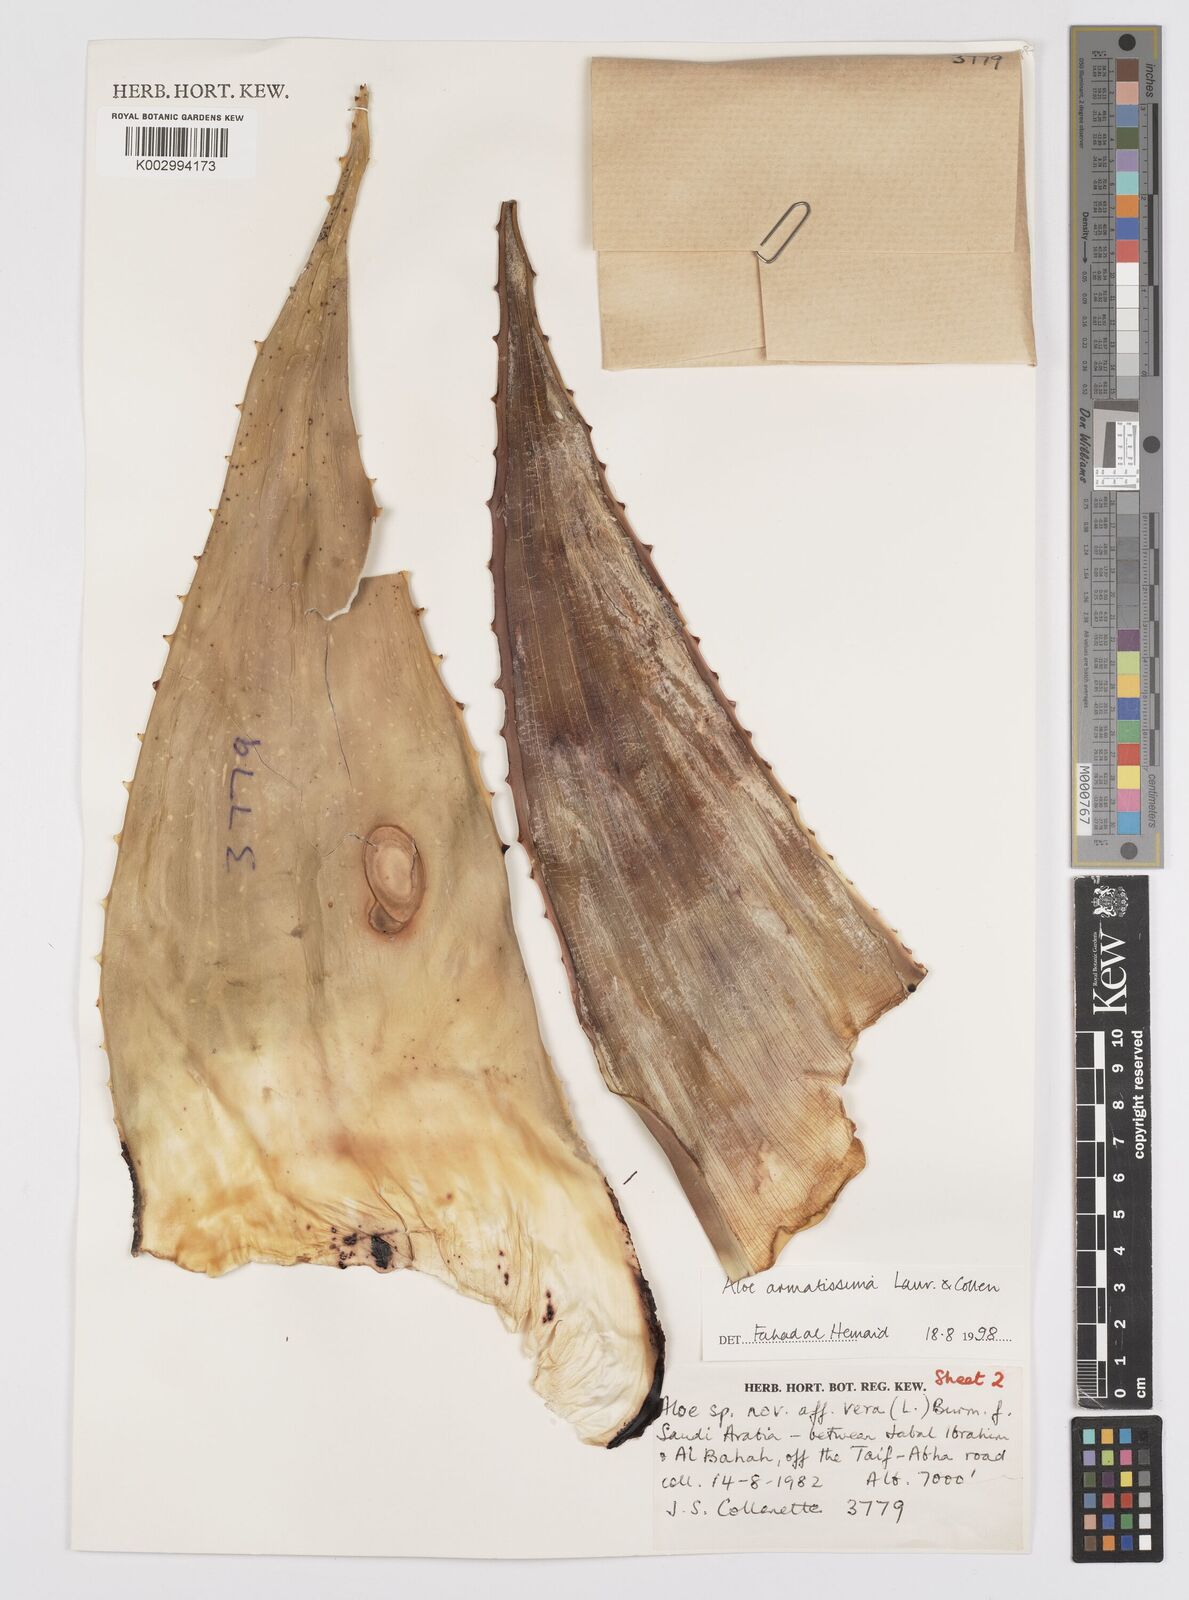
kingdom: Plantae
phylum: Tracheophyta
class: Liliopsida
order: Asparagales
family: Asphodelaceae
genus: Aloe
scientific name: Aloe armatissima
